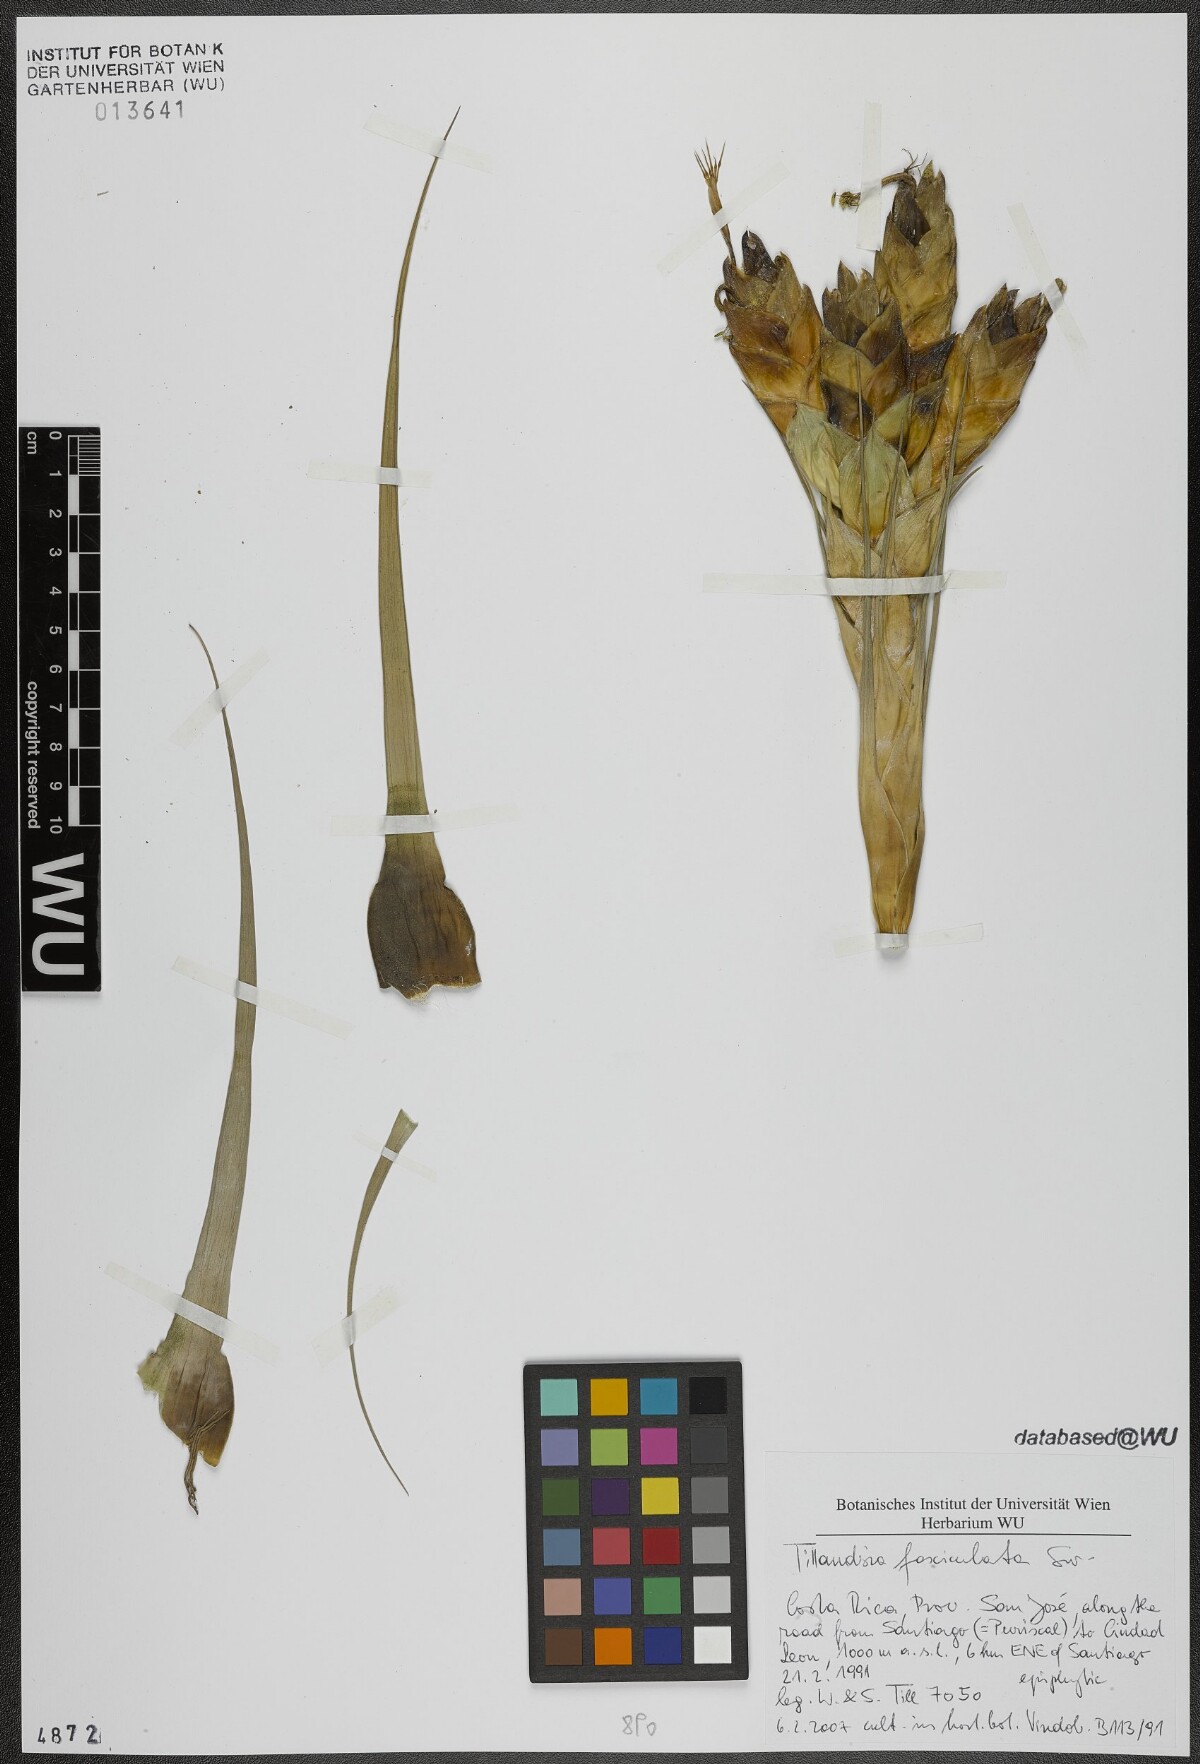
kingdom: Plantae
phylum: Tracheophyta
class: Liliopsida
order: Poales
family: Bromeliaceae
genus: Tillandsia
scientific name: Tillandsia fasciculata
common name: Giant airplant
